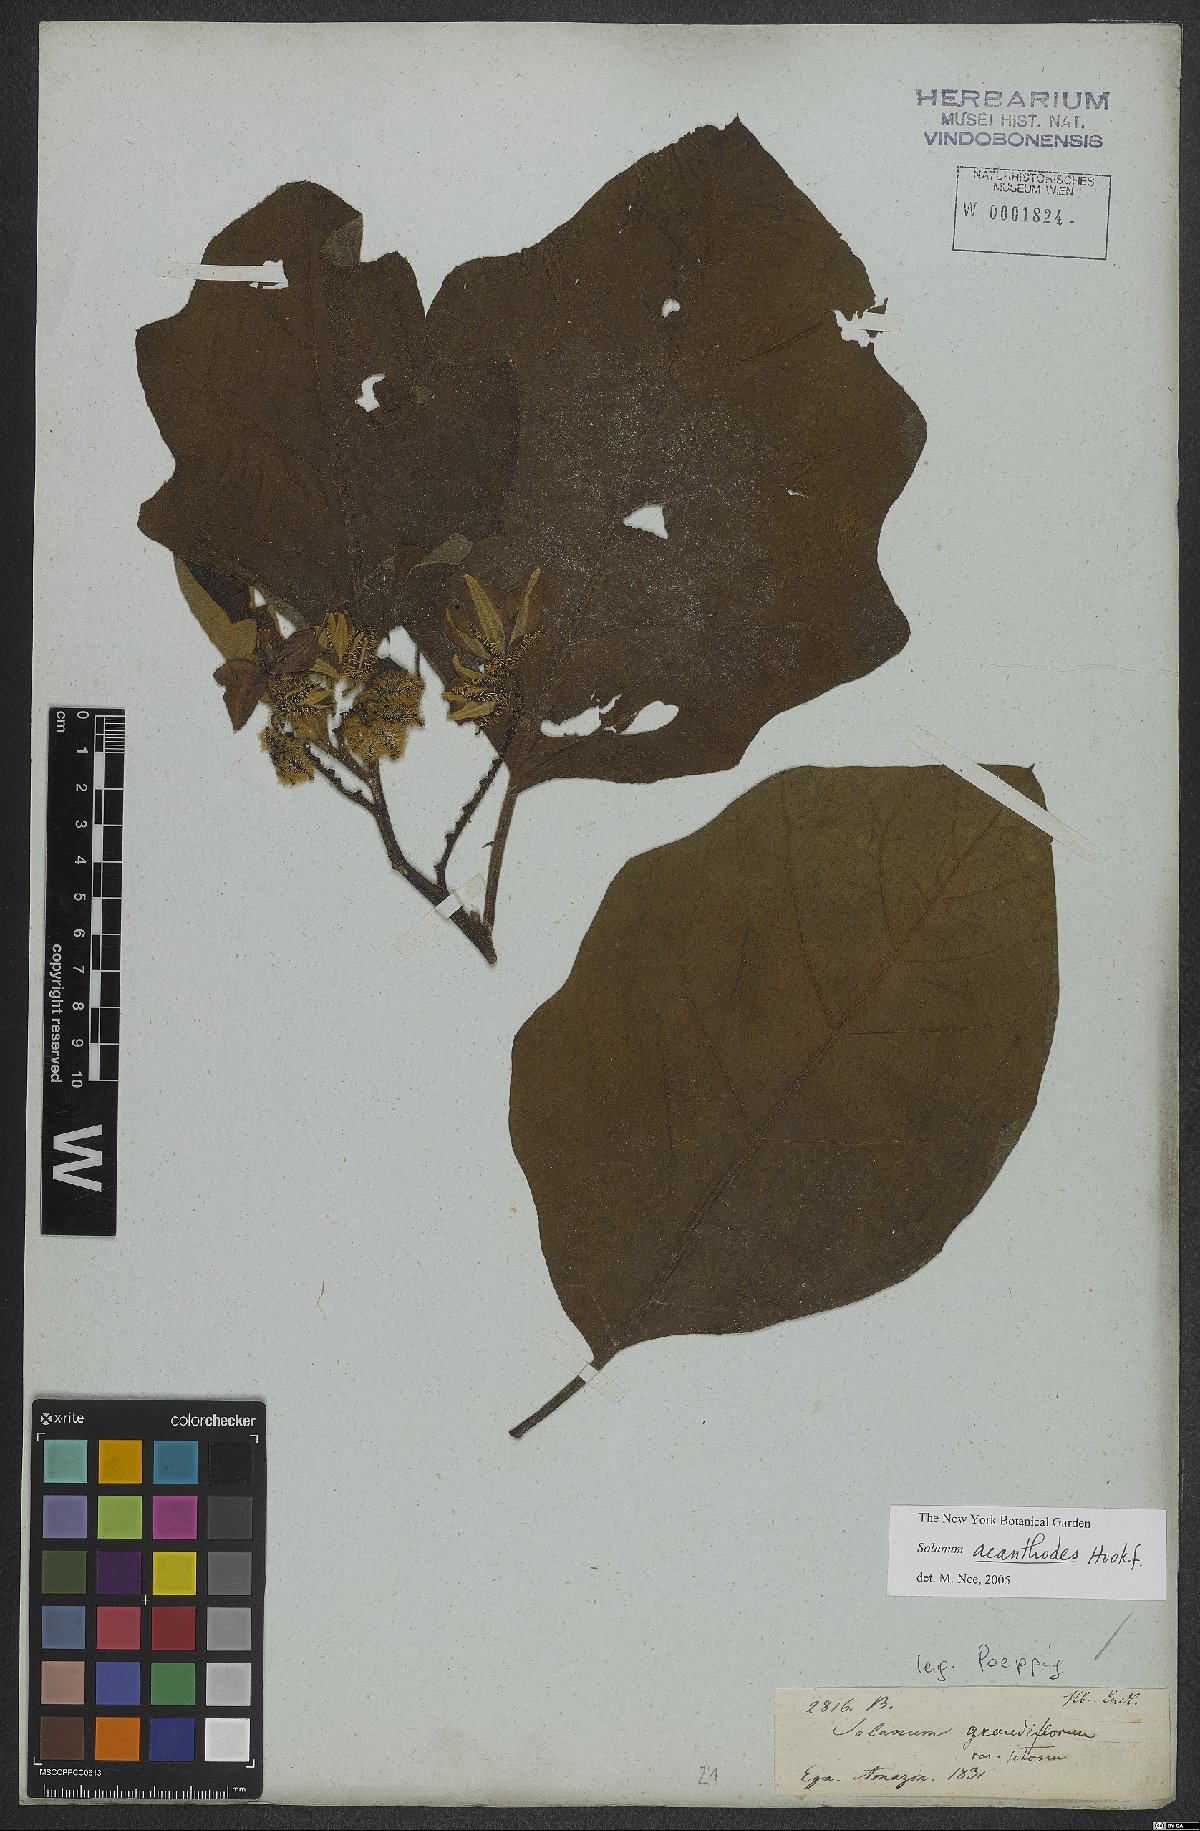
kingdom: Plantae
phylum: Tracheophyta
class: Magnoliopsida
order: Solanales
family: Solanaceae
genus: Solanum
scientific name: Solanum vanheurckii
